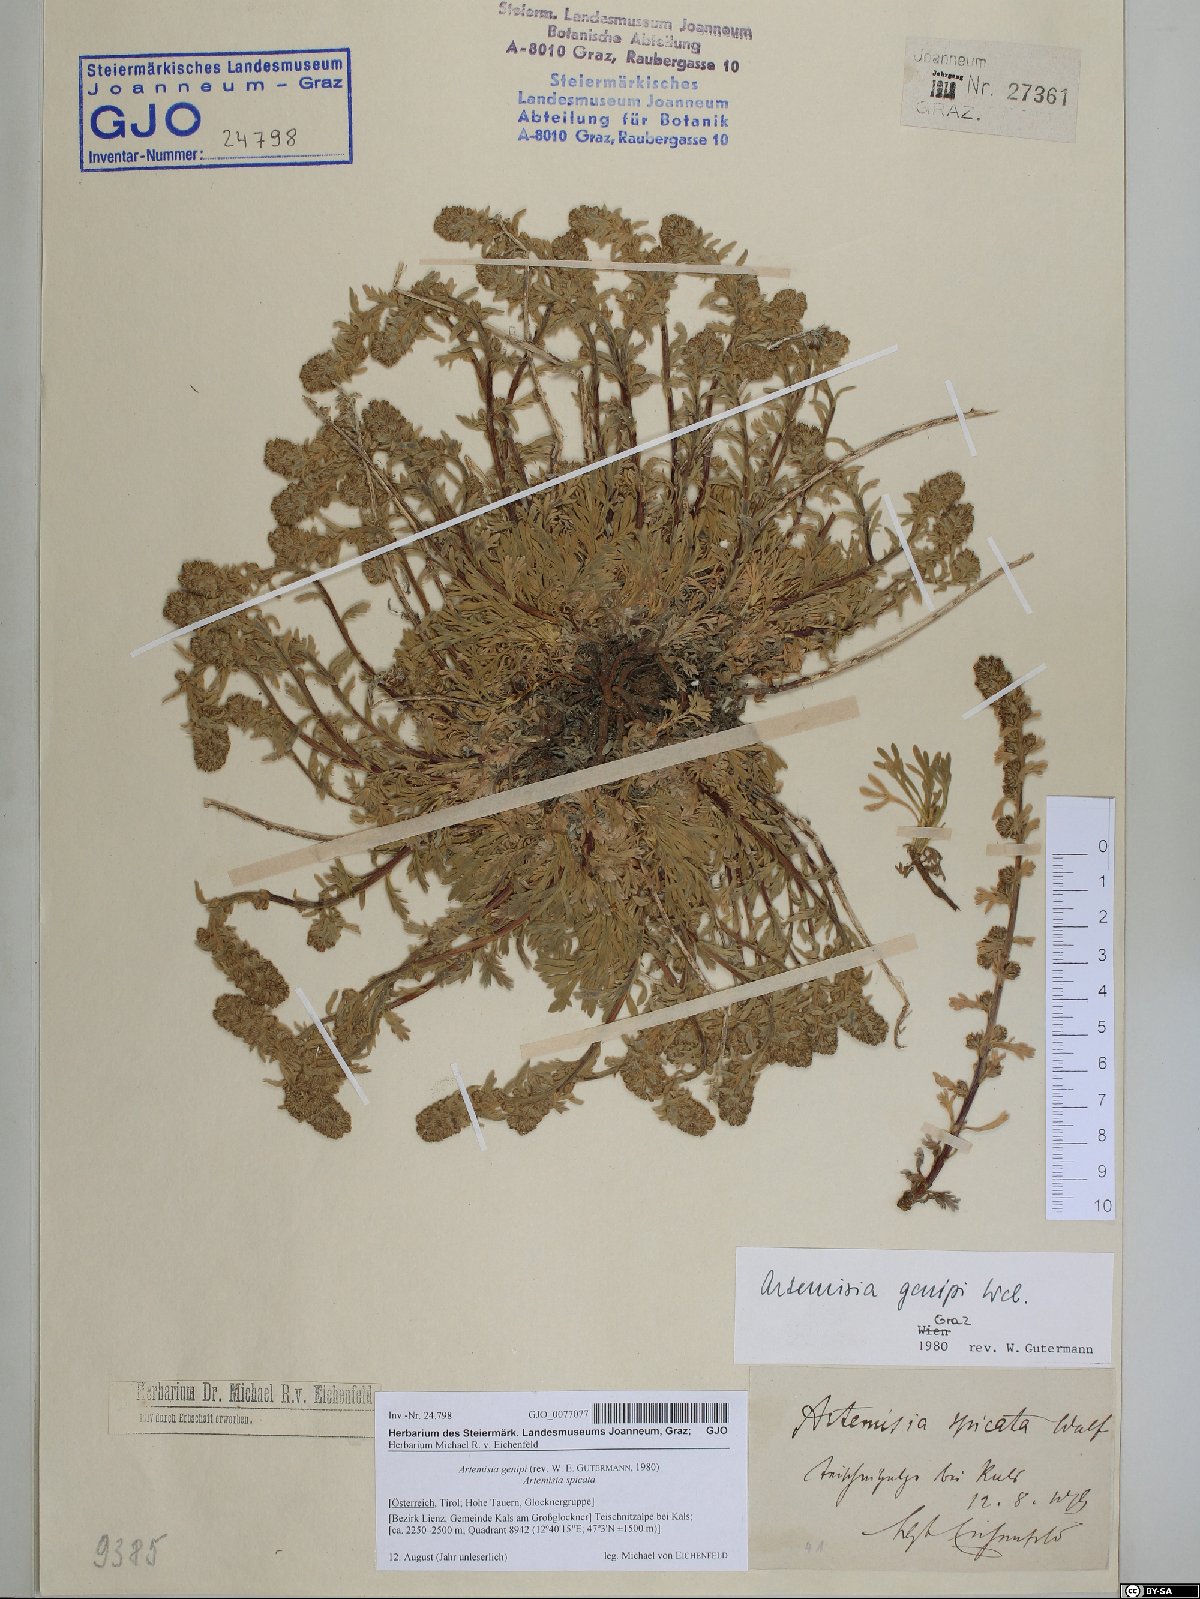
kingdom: Plantae
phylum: Tracheophyta
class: Magnoliopsida
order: Asterales
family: Asteraceae
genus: Artemisia
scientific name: Artemisia genipi
